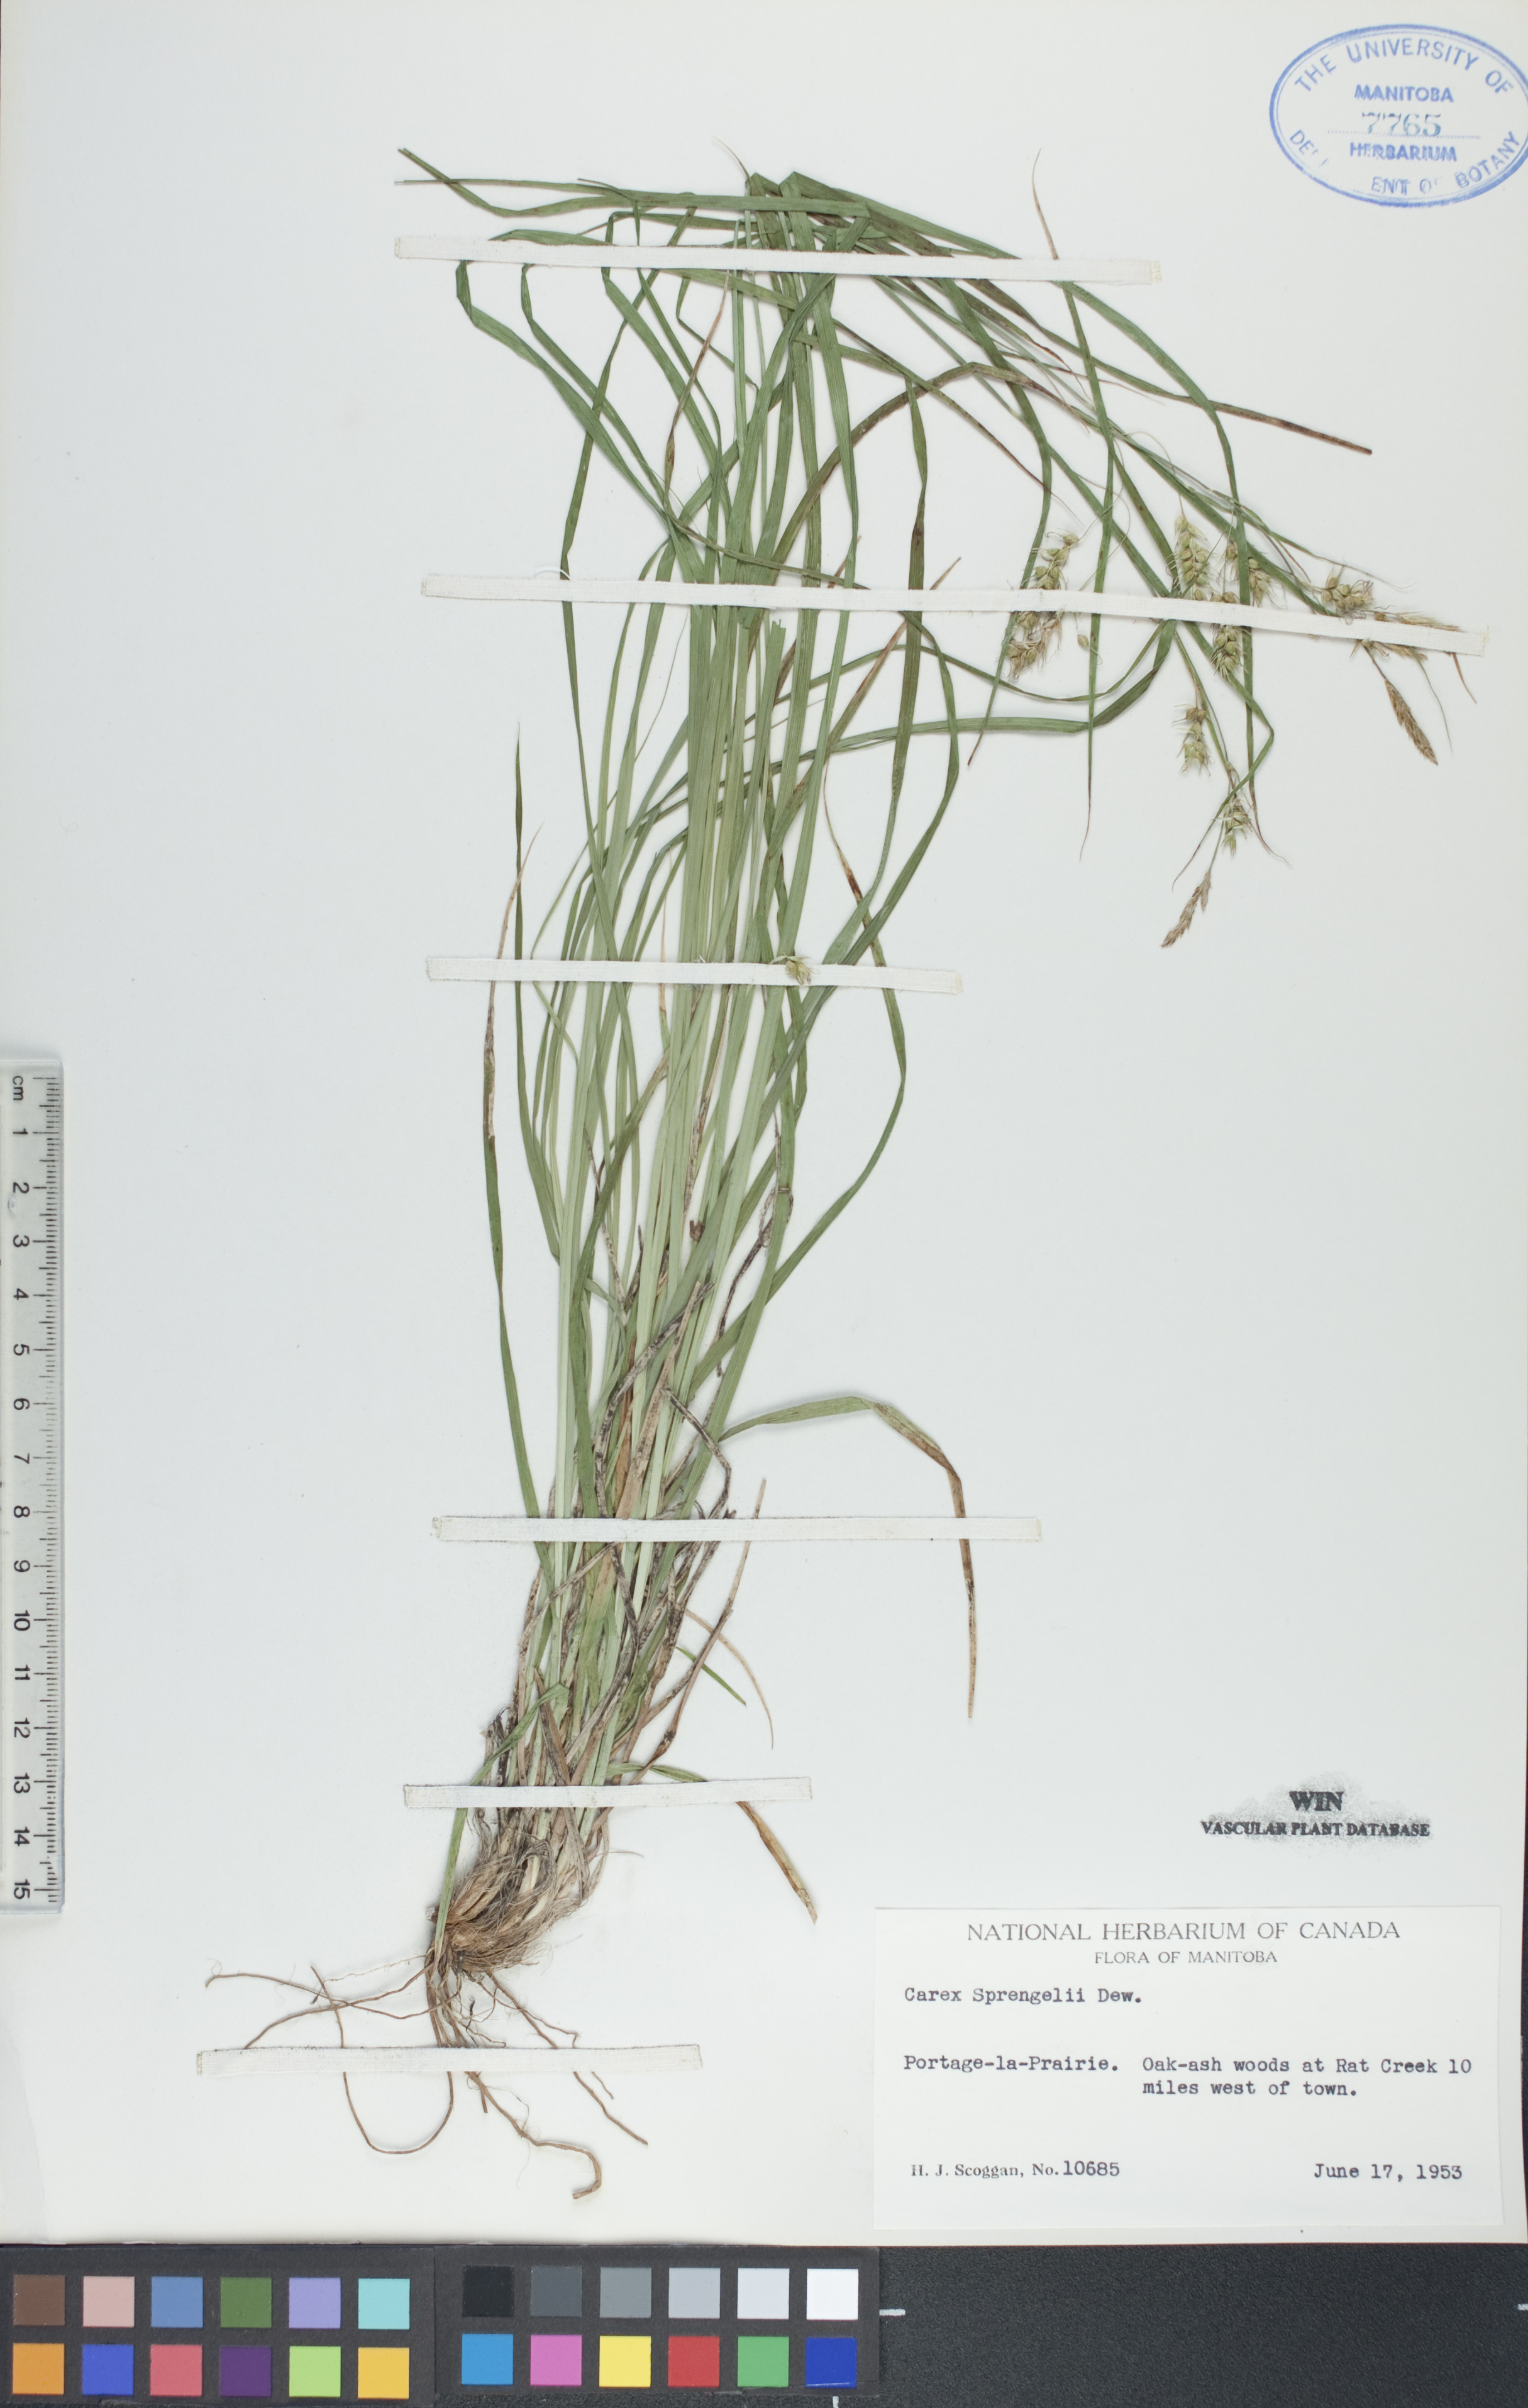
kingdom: Plantae
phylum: Tracheophyta
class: Liliopsida
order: Poales
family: Cyperaceae
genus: Carex
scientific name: Carex sprengelii
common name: Long-beaked sedge
